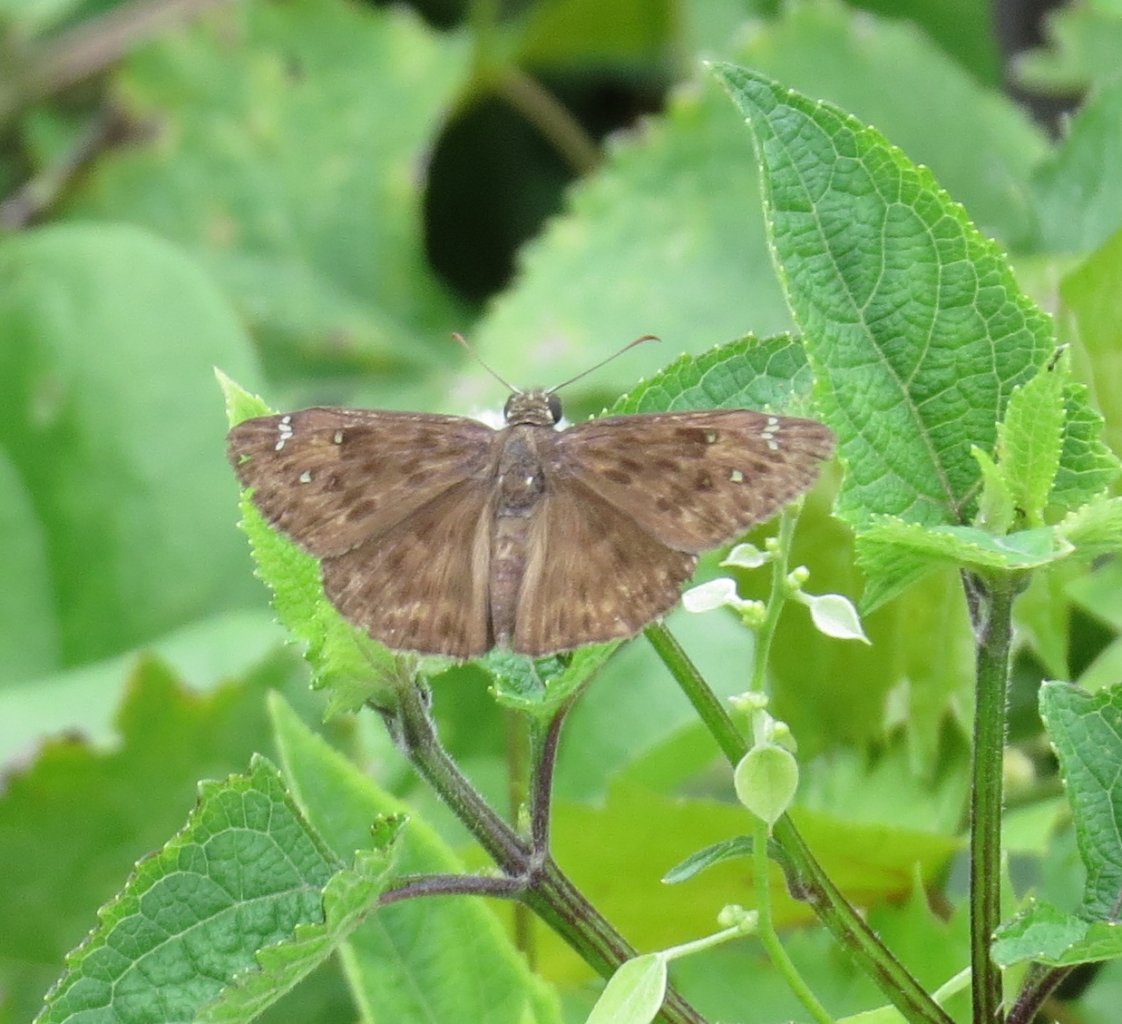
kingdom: Animalia
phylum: Arthropoda
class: Insecta
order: Lepidoptera
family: Hesperiidae
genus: Gesta
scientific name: Gesta
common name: Horace's Duskywing
